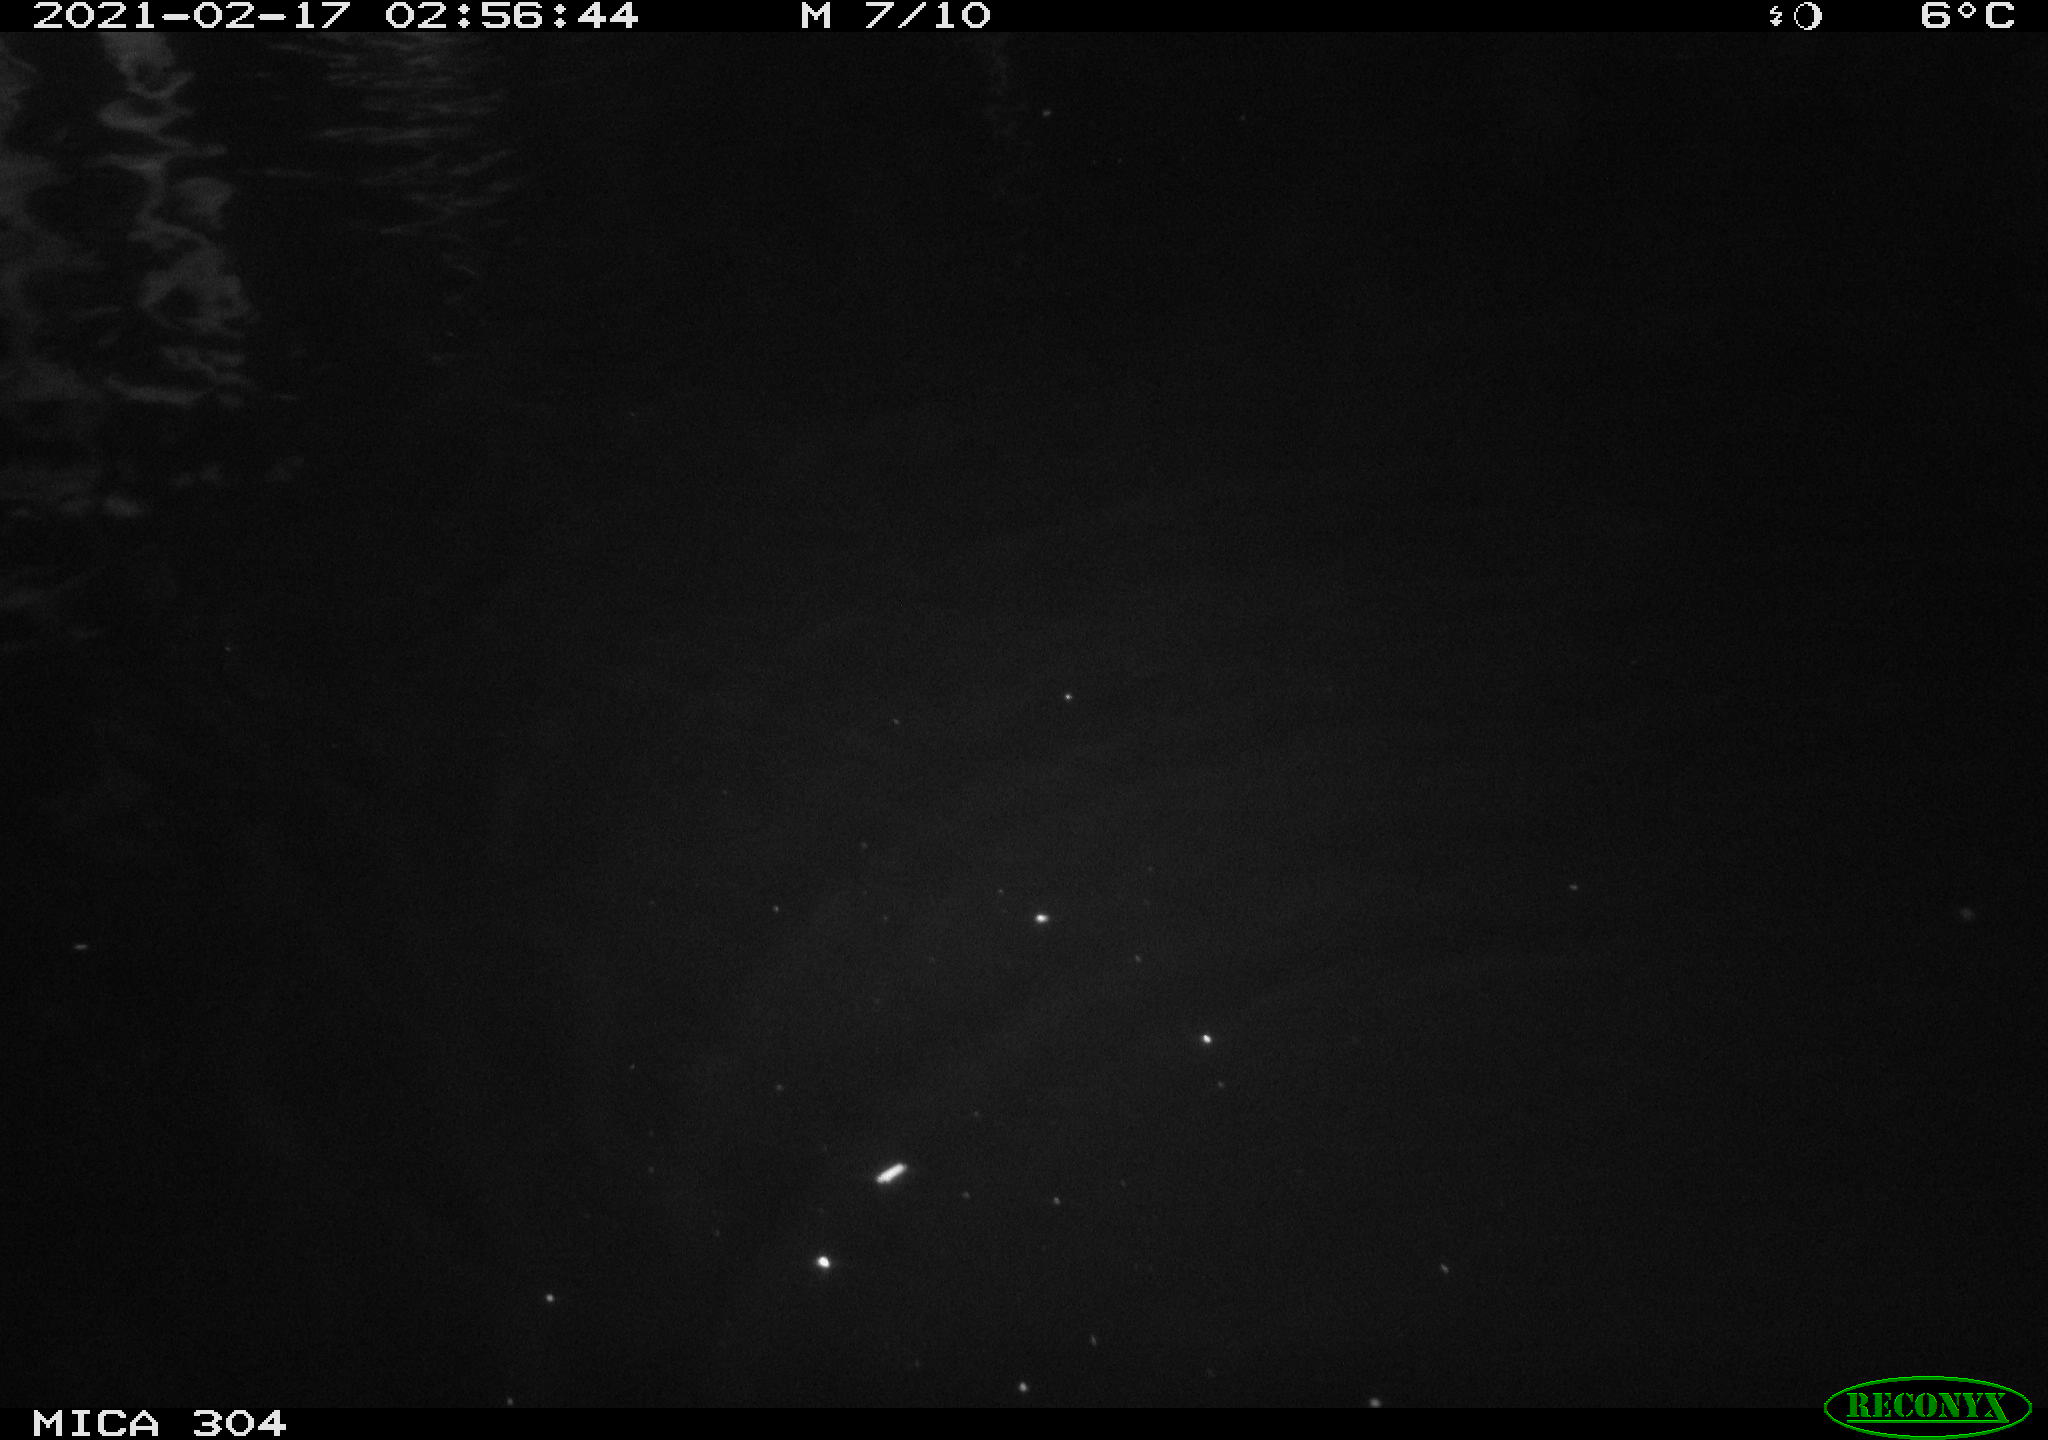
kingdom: Animalia
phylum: Chordata
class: Mammalia
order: Rodentia
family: Cricetidae
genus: Ondatra
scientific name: Ondatra zibethicus
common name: Muskrat
